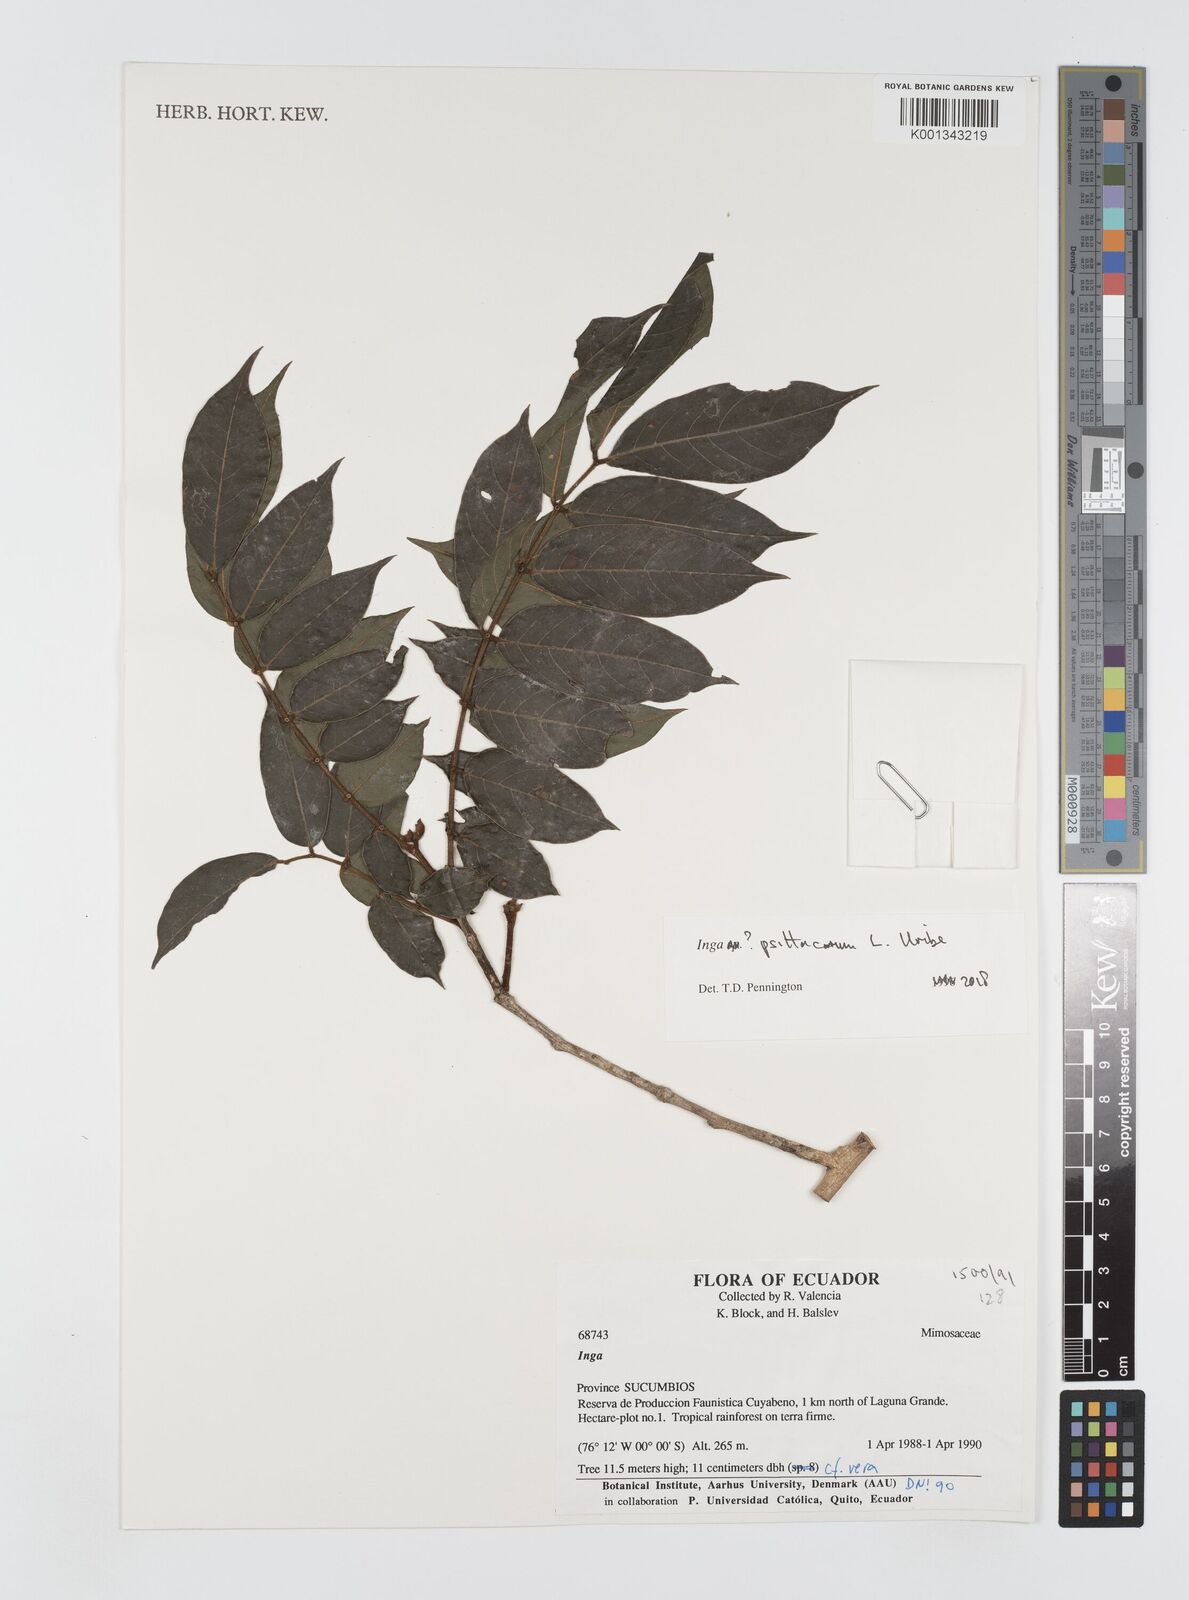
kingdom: Plantae
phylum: Tracheophyta
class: Magnoliopsida
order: Fabales
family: Fabaceae
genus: Inga
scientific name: Inga psittacorum
